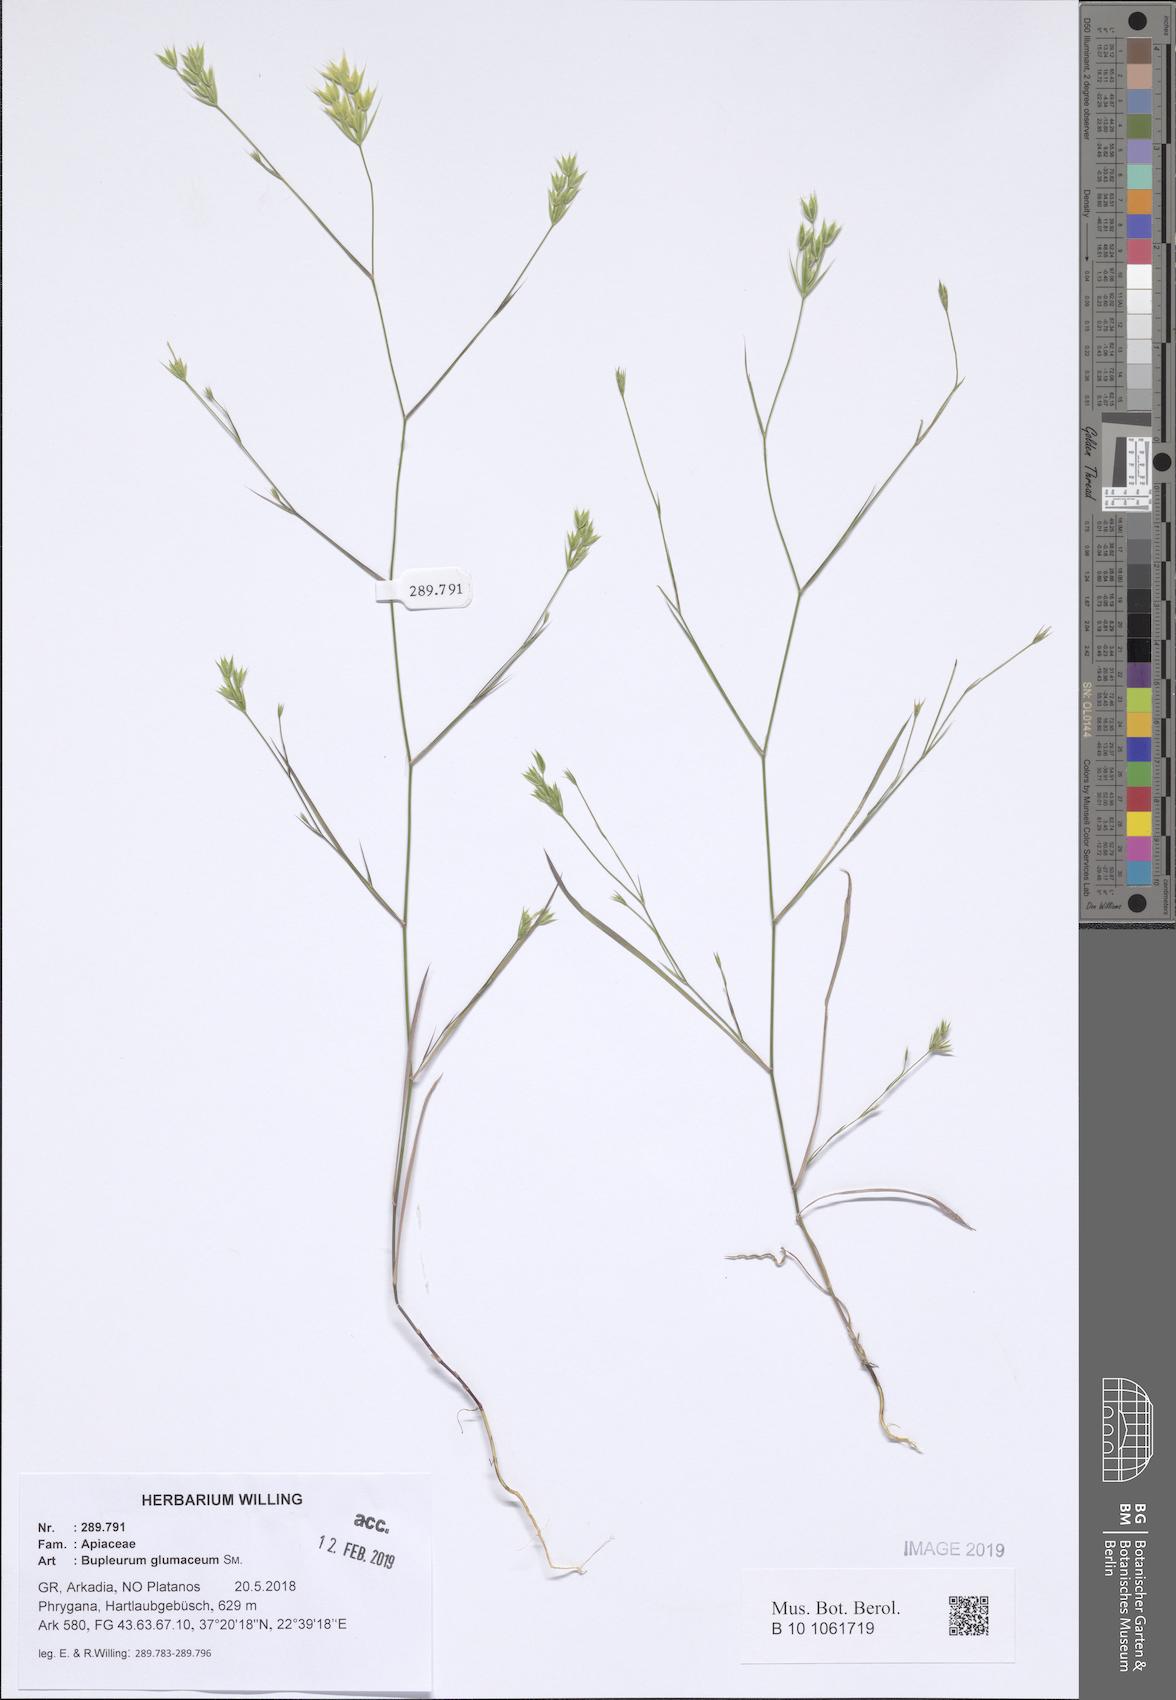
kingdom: Plantae
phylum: Tracheophyta
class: Magnoliopsida
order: Apiales
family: Apiaceae
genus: Bupleurum
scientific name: Bupleurum glumaceum
